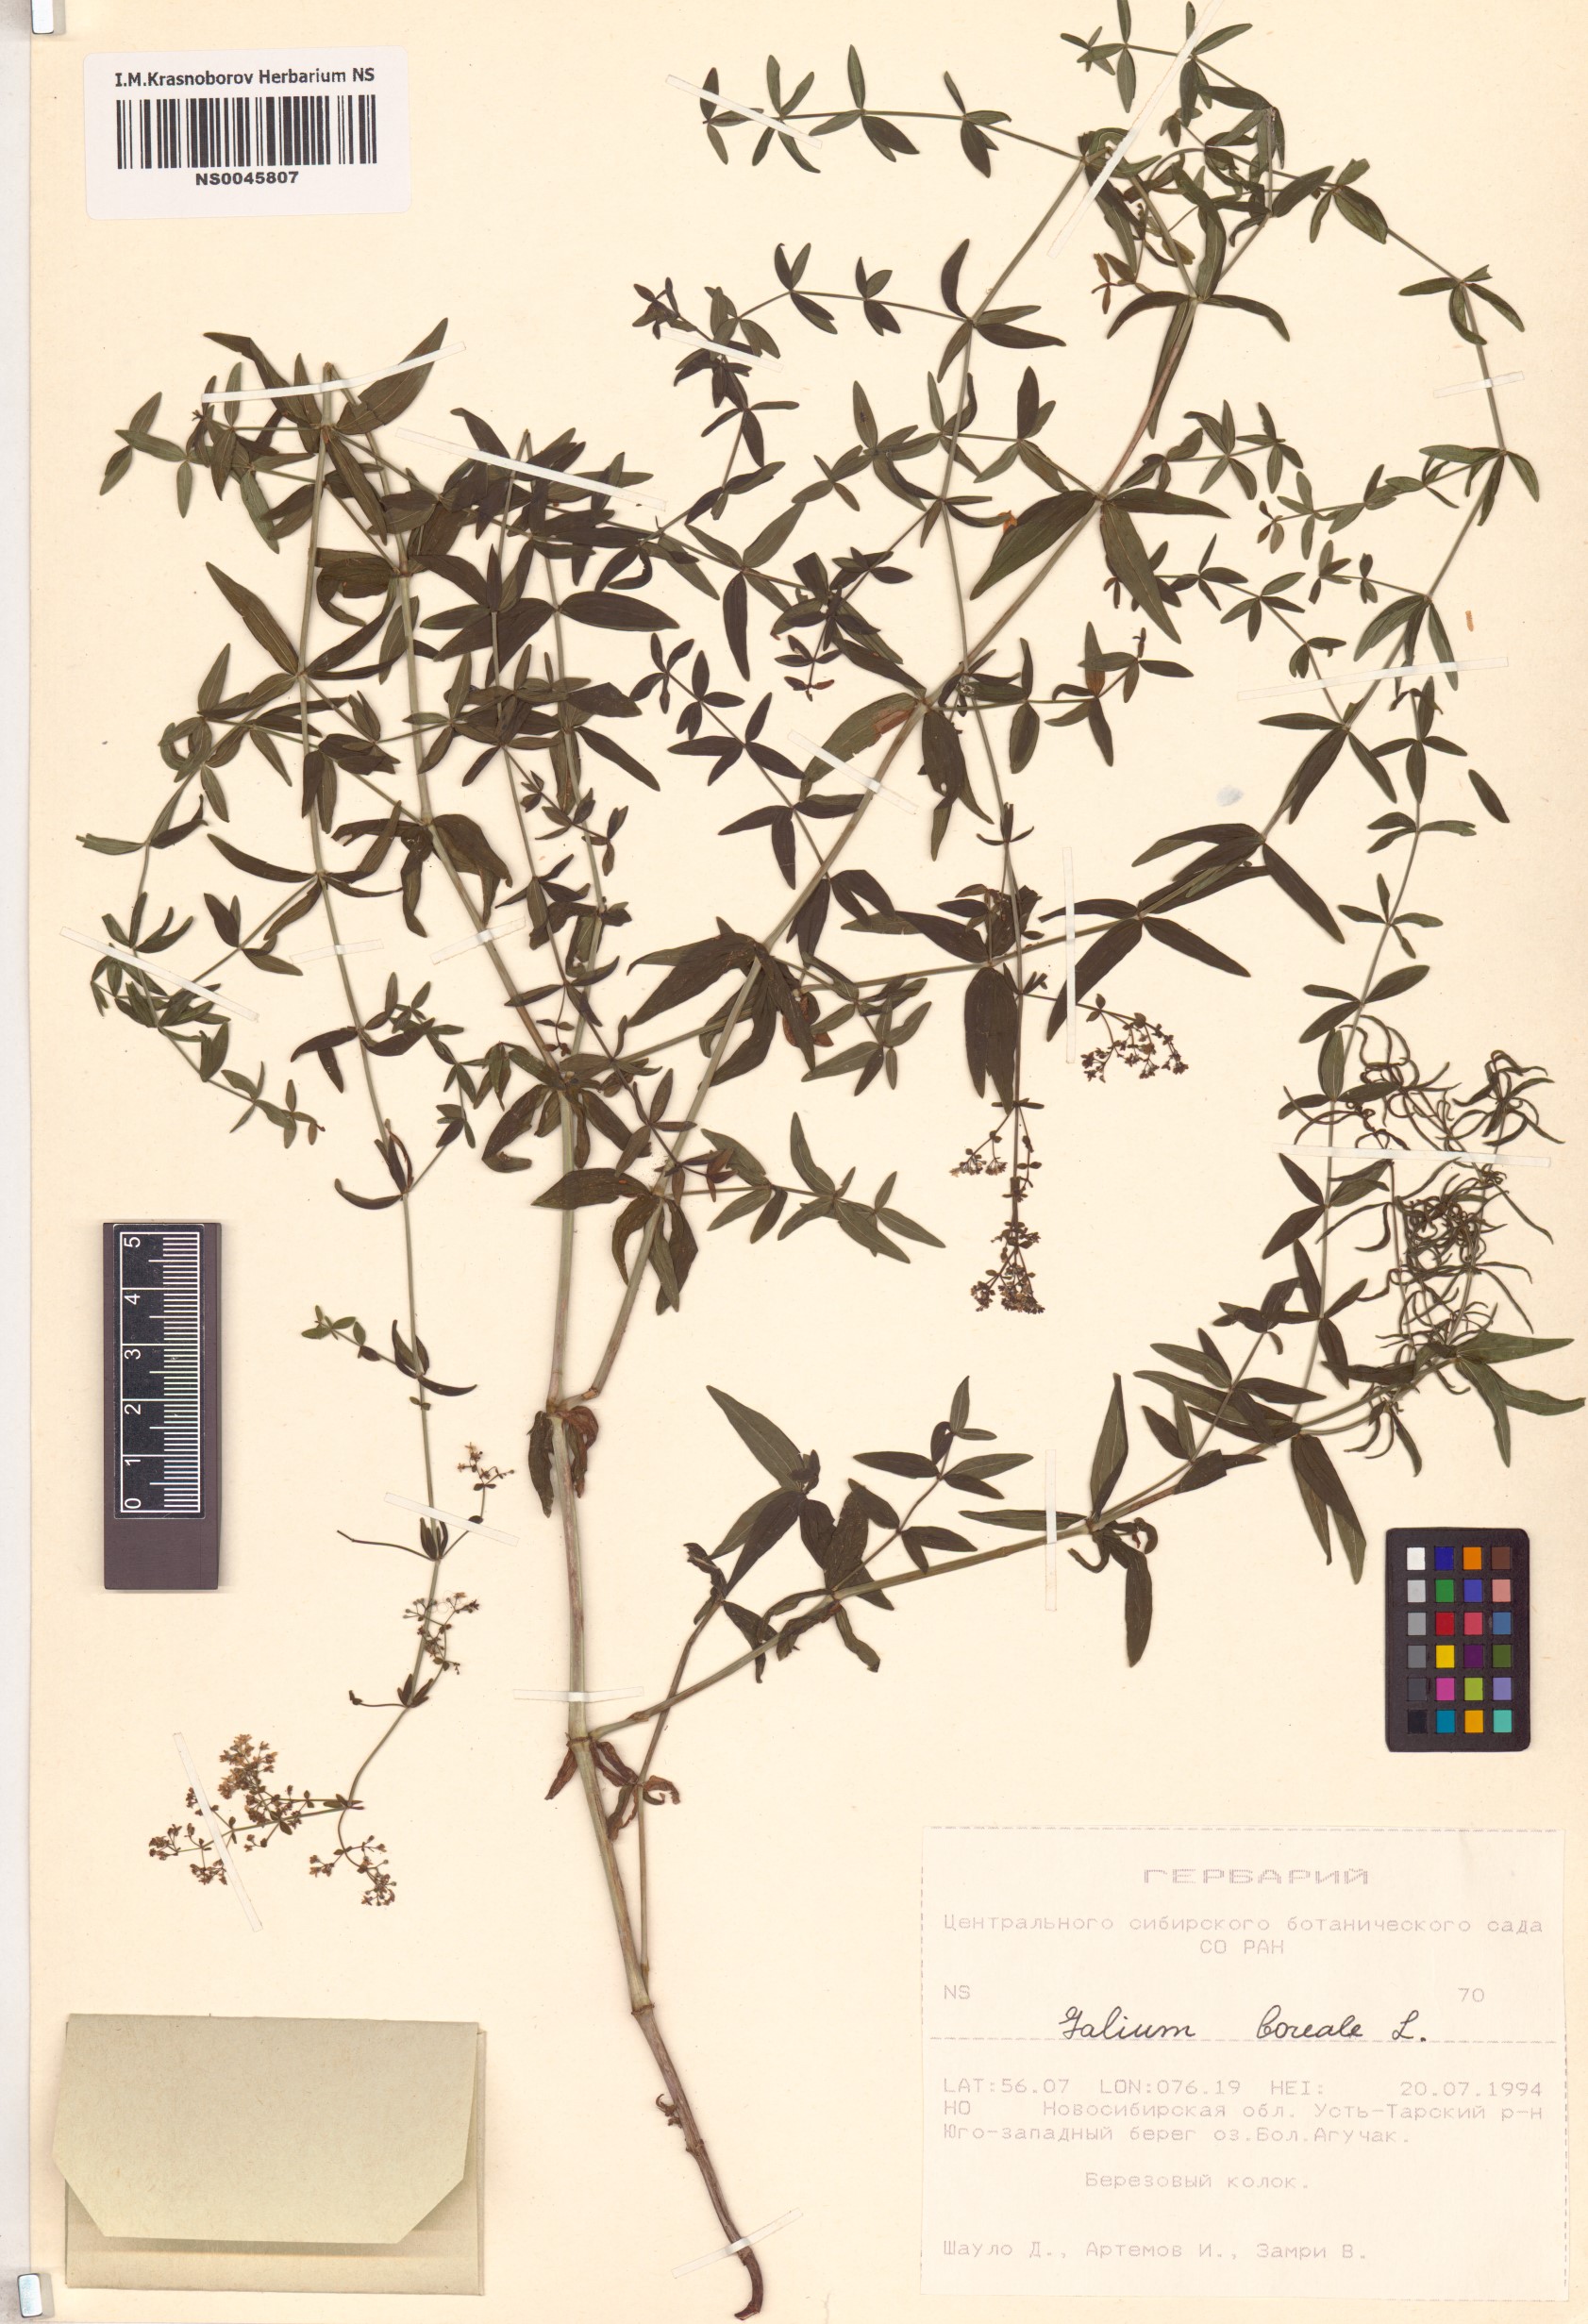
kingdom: Plantae
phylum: Tracheophyta
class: Magnoliopsida
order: Gentianales
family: Rubiaceae
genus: Galium
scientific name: Galium boreale
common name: Northern bedstraw
